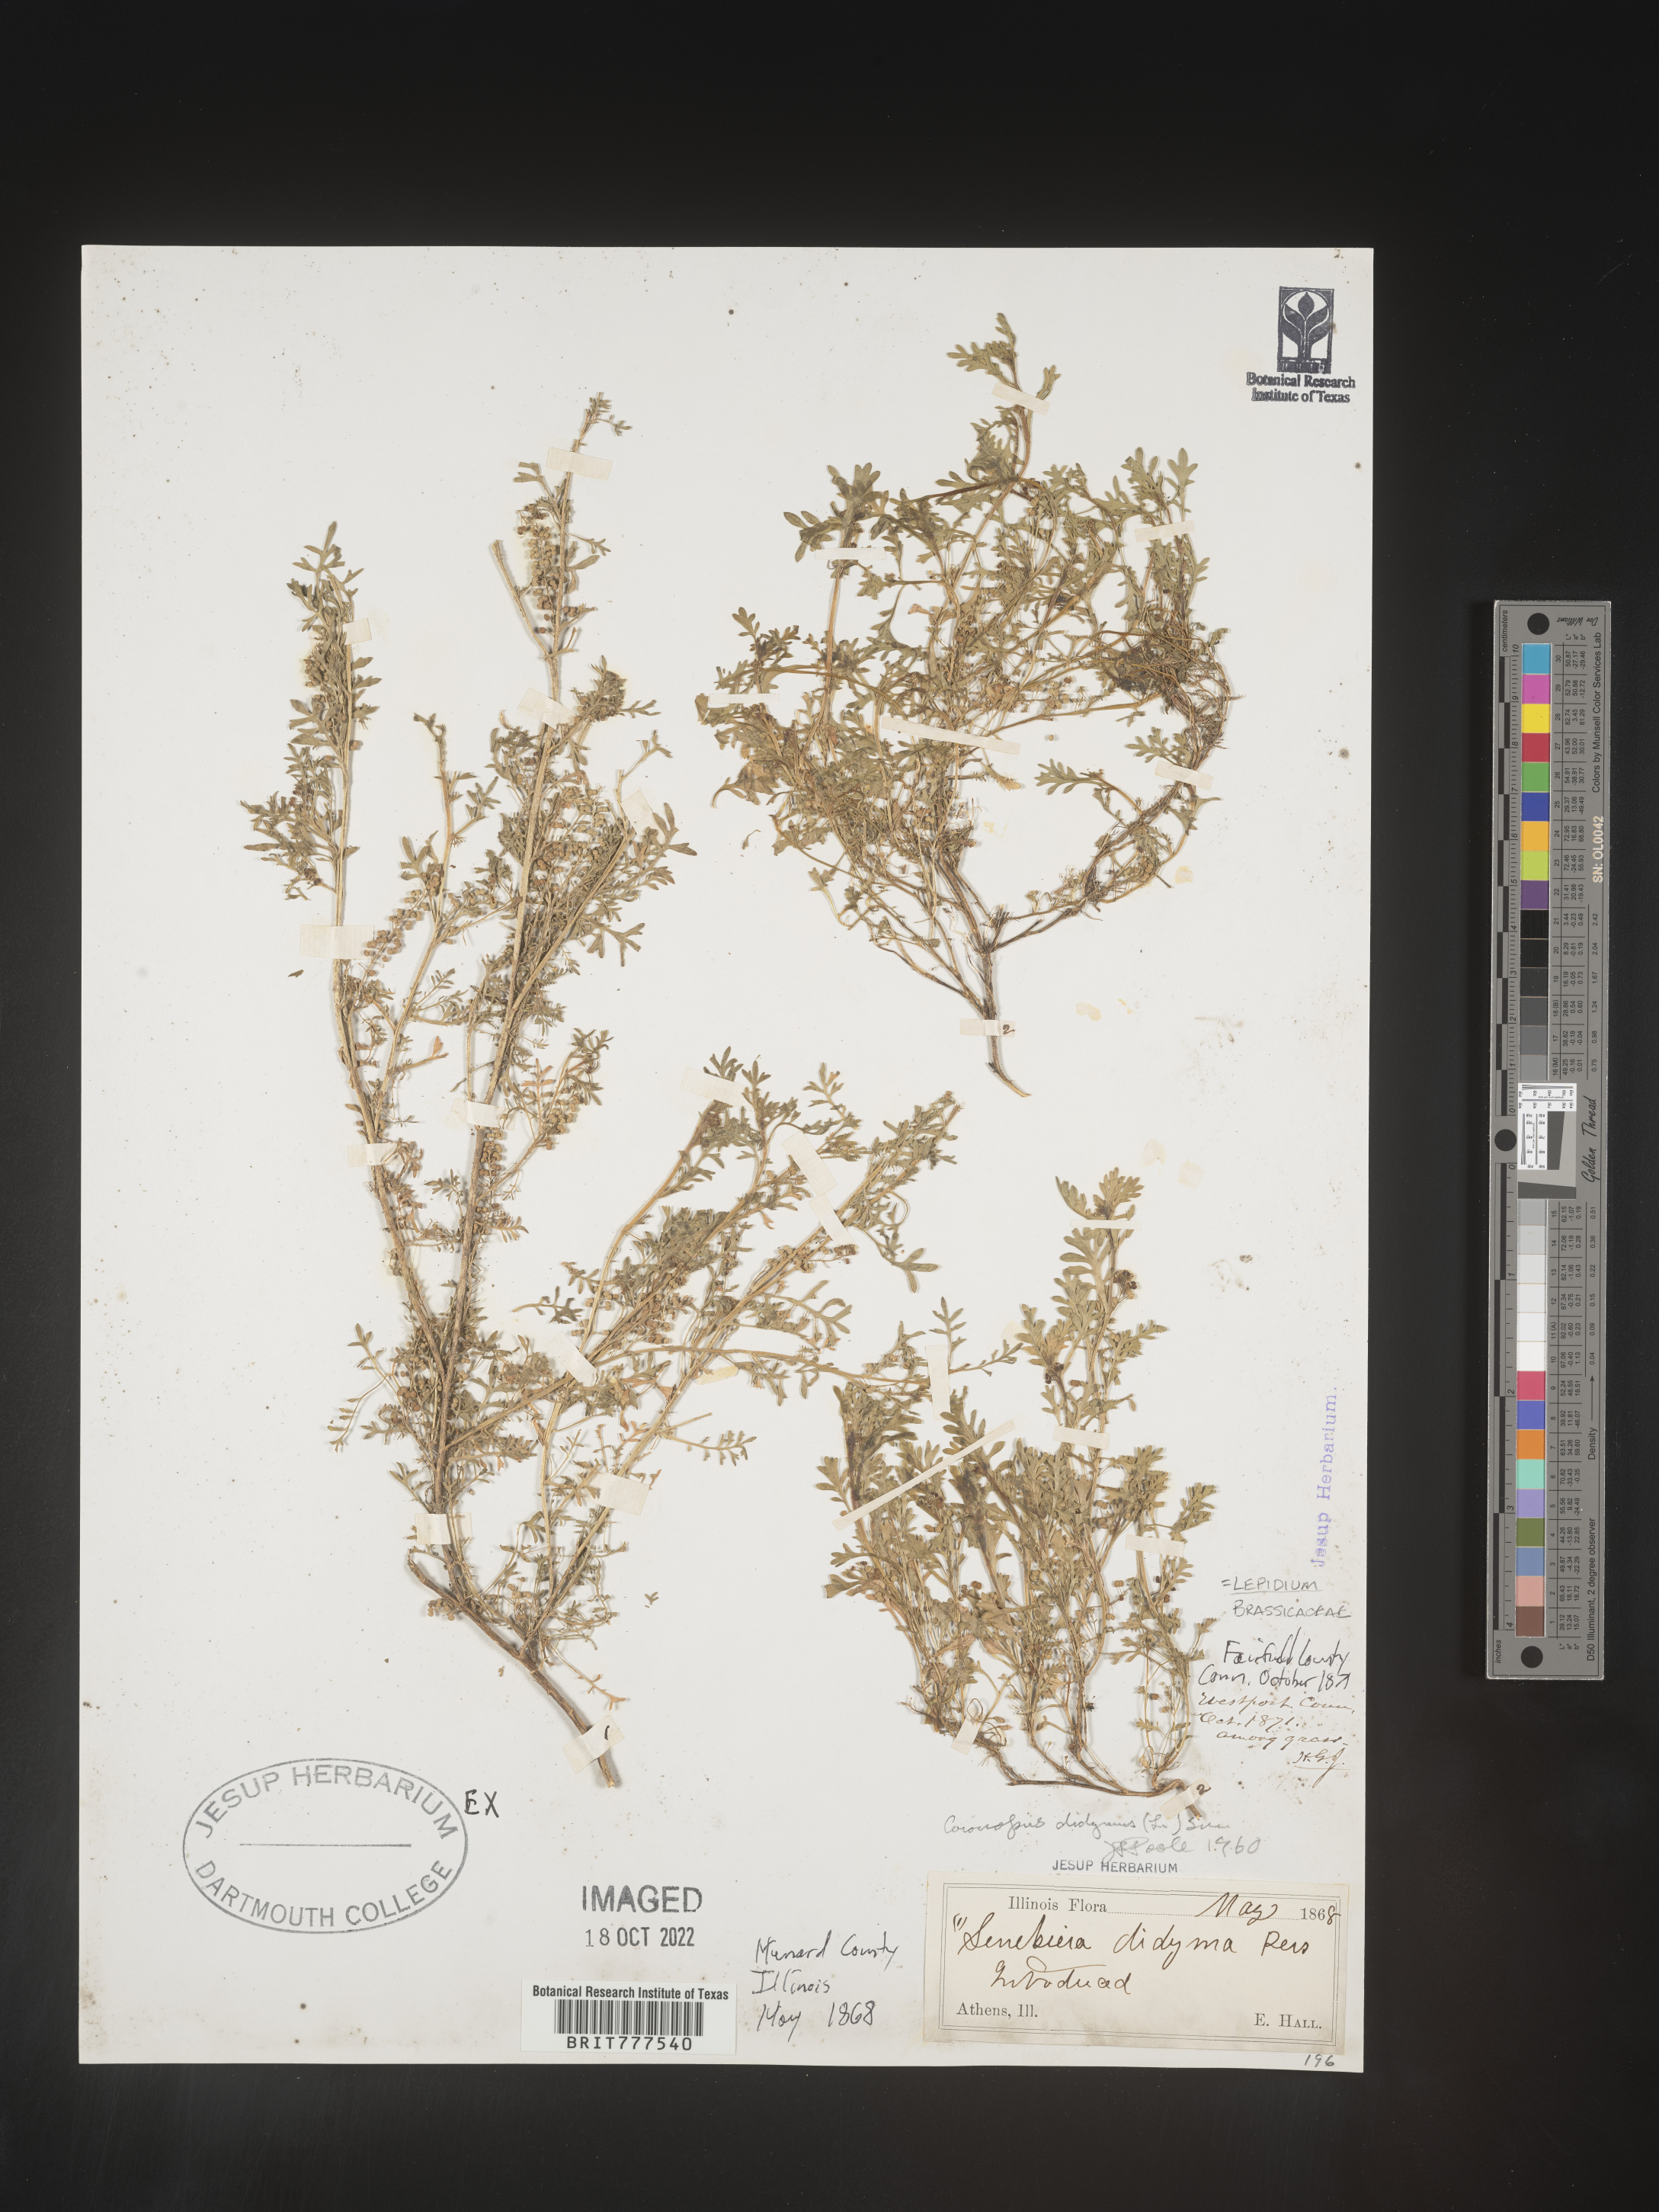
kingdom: Plantae
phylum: Tracheophyta
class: Magnoliopsida
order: Brassicales
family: Brassicaceae
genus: Lepidium
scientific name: Lepidium
